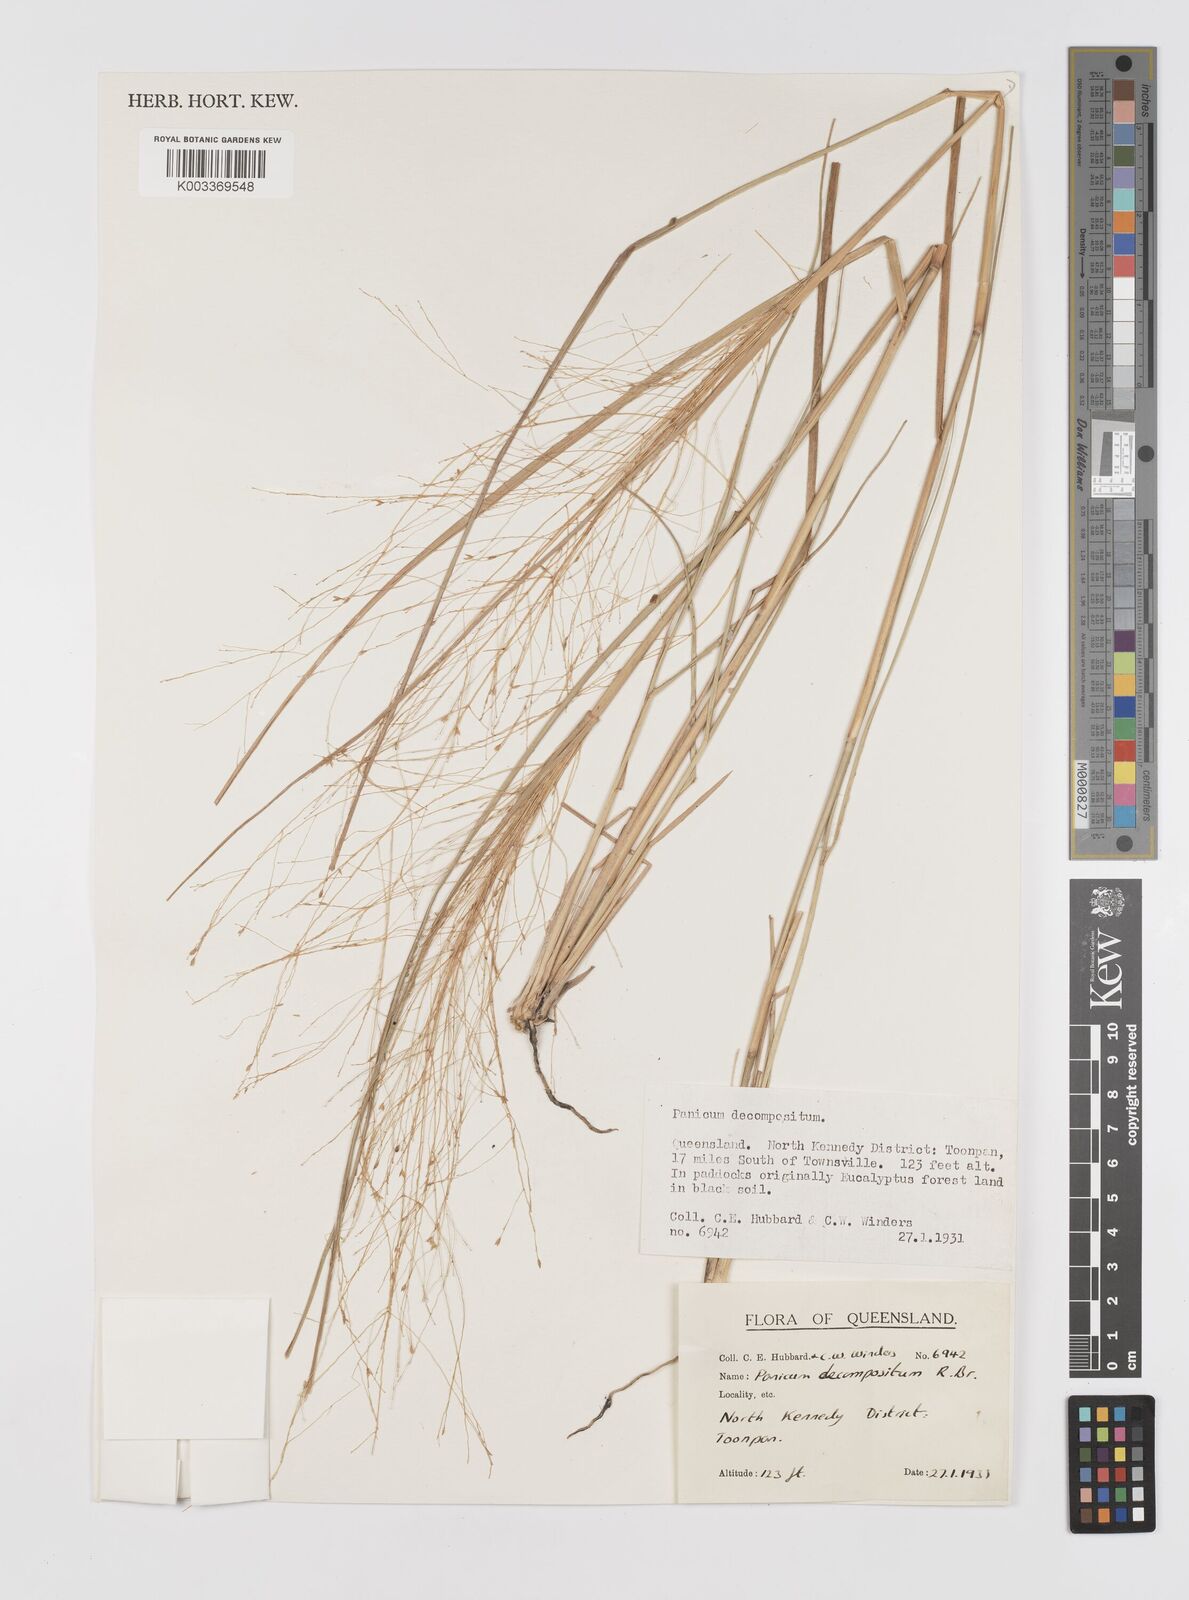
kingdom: Plantae
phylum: Tracheophyta
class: Liliopsida
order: Poales
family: Poaceae
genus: Panicum
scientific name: Panicum decompositum
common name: Australian millet
